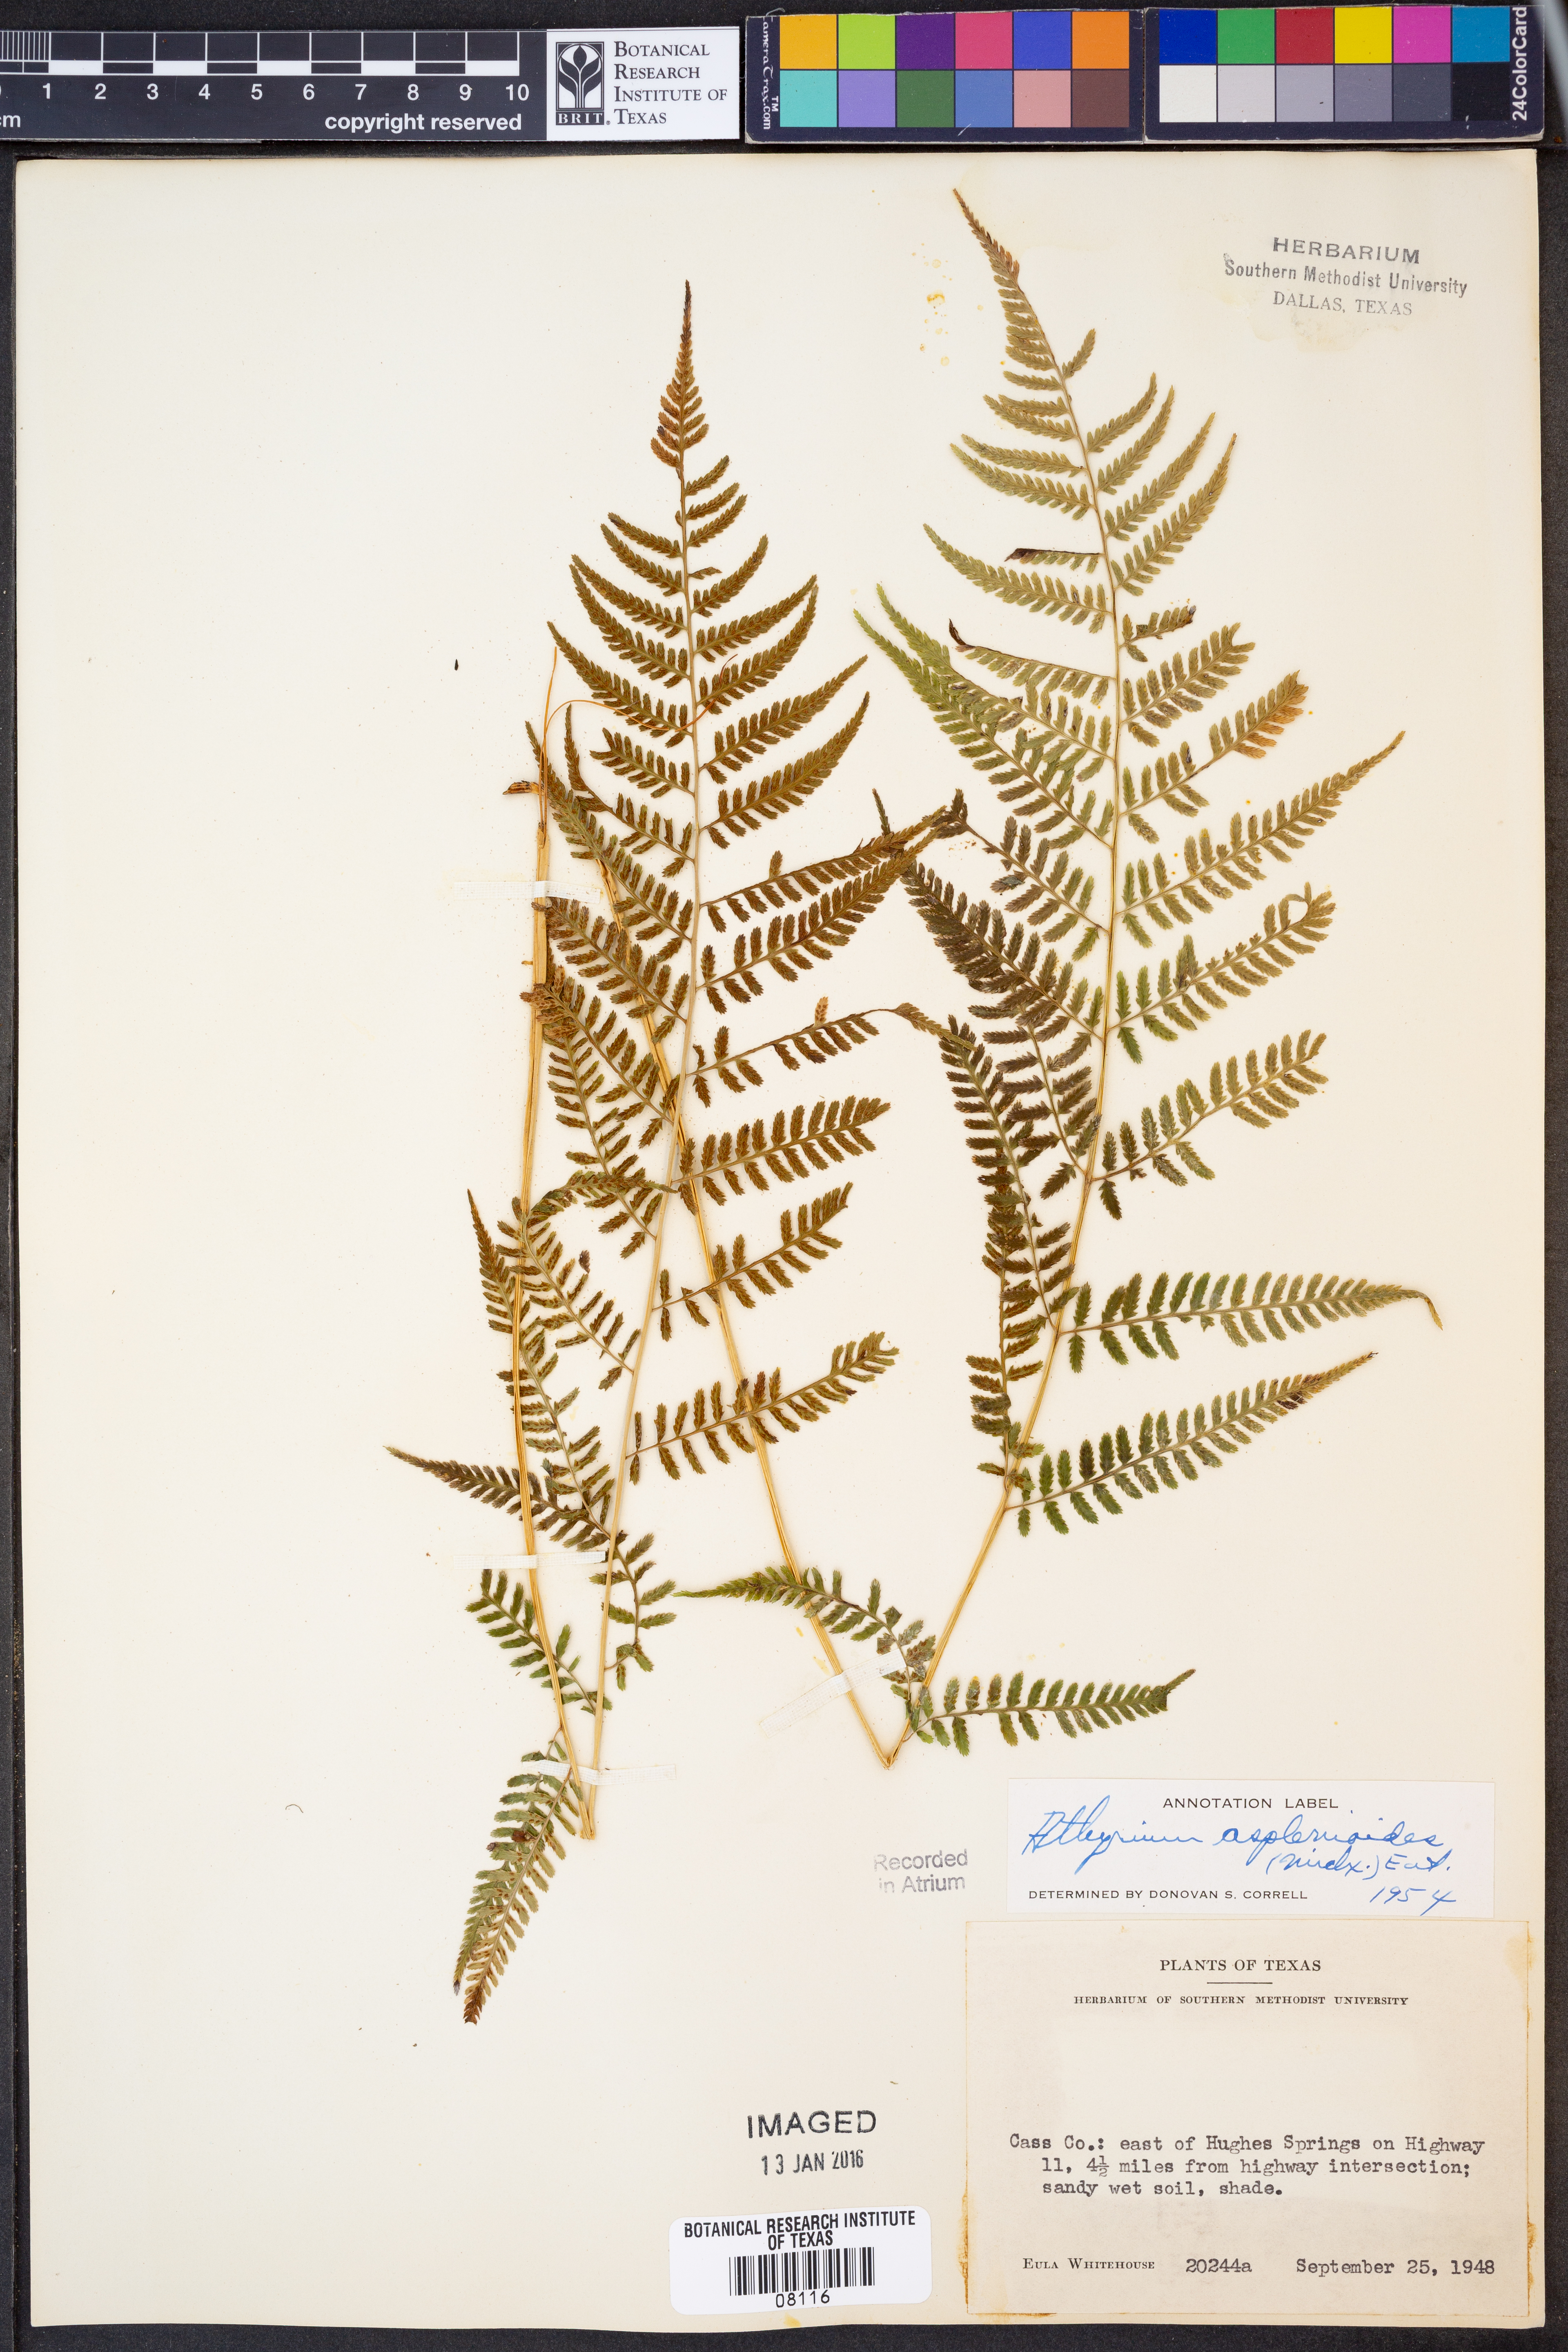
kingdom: Plantae
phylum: Tracheophyta
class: Polypodiopsida
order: Polypodiales
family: Athyriaceae
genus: Athyrium
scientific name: Athyrium asplenioides
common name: Southern lady fern
